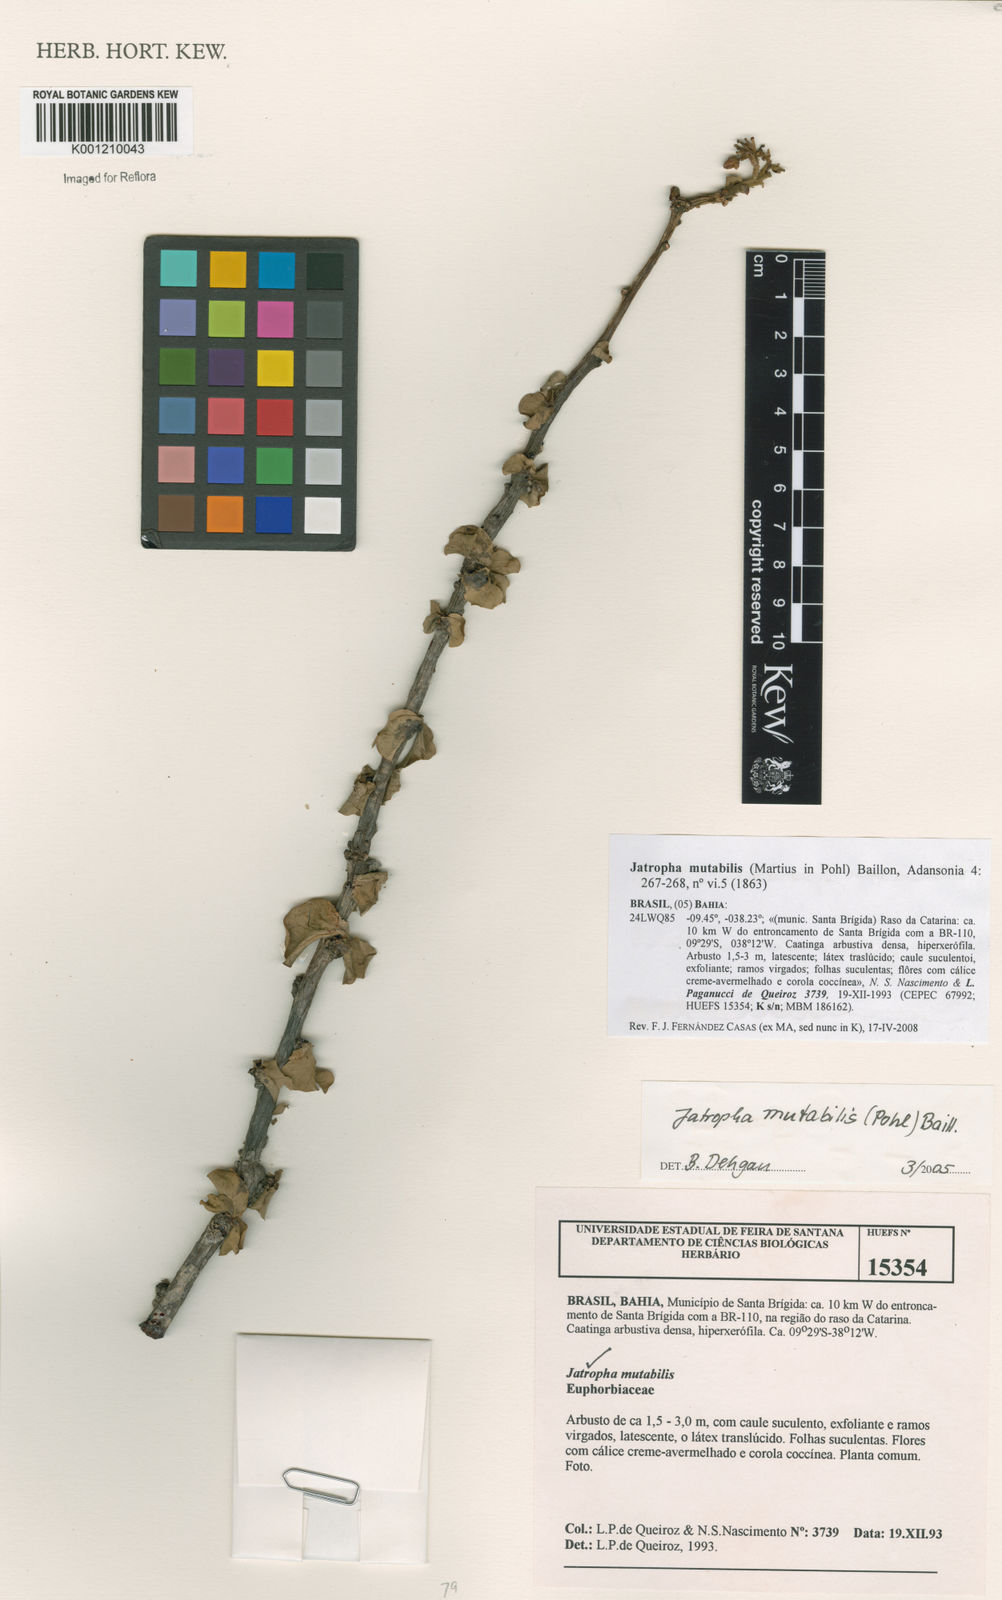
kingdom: Plantae
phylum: Tracheophyta
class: Magnoliopsida
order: Malpighiales
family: Euphorbiaceae
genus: Jatropha
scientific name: Jatropha mutabilis
